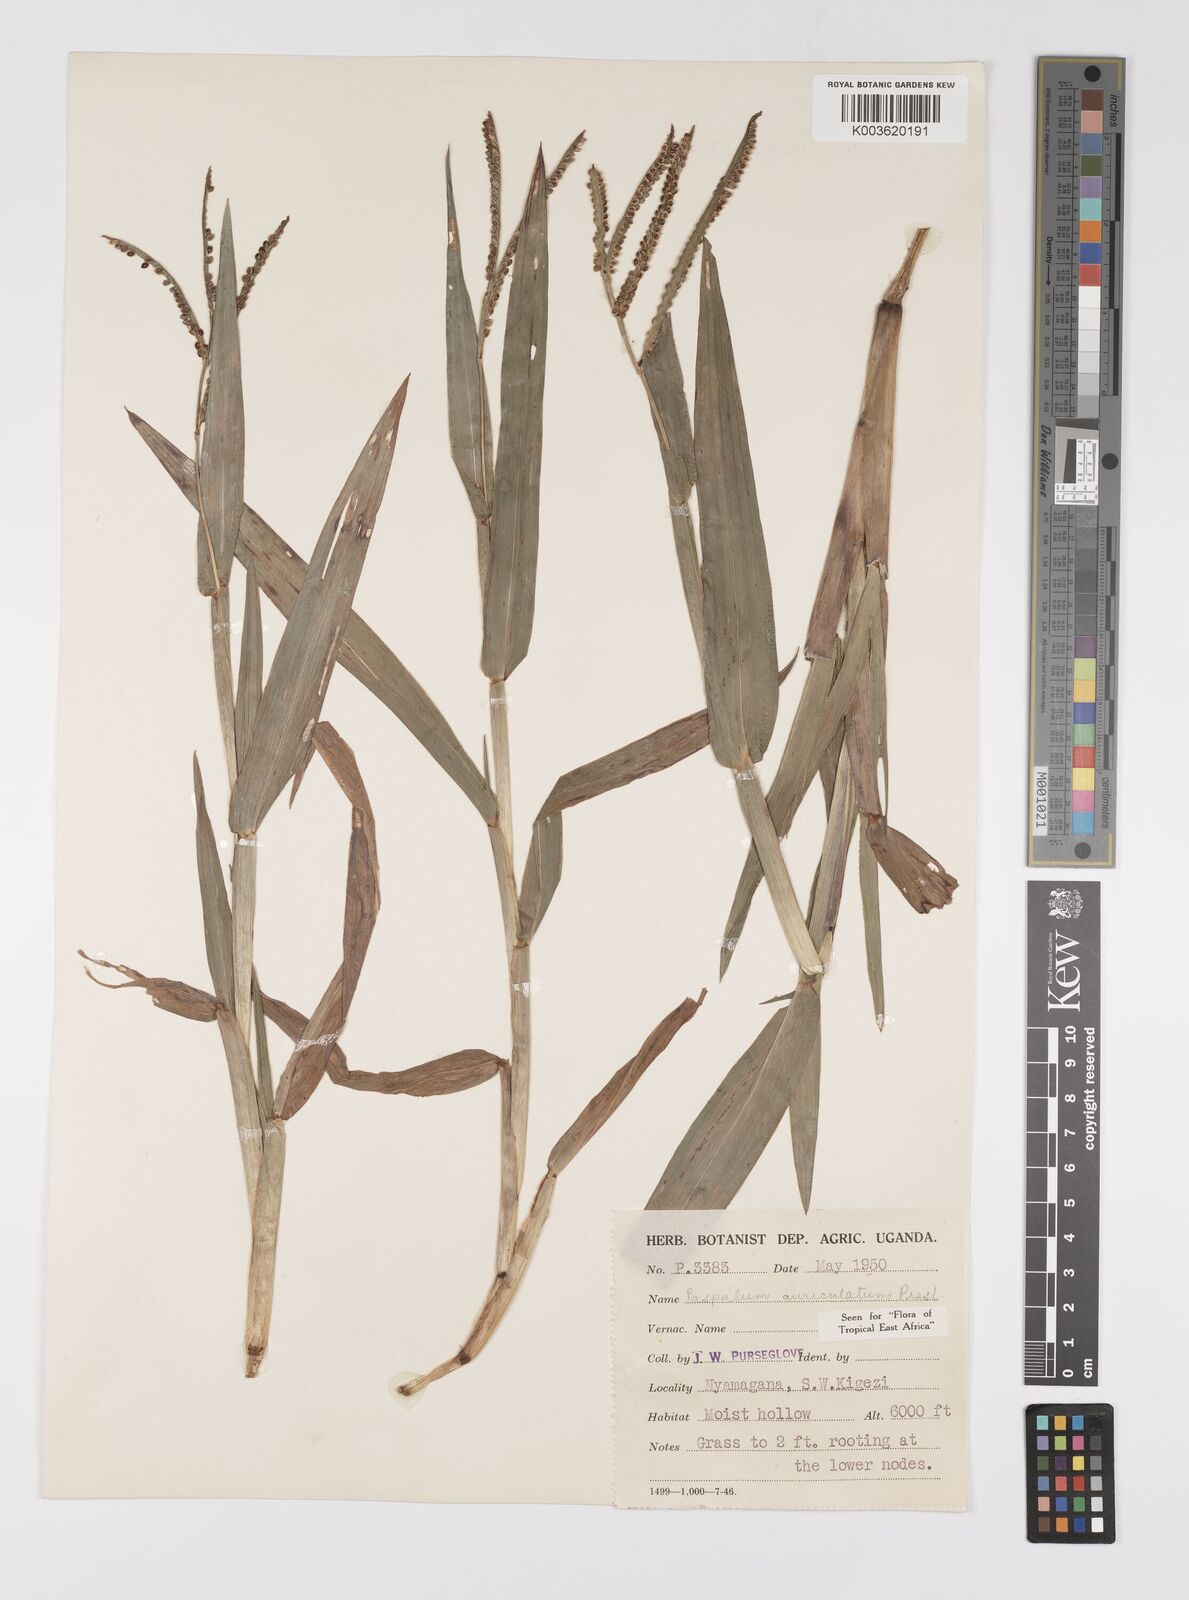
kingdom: Plantae
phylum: Tracheophyta
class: Liliopsida
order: Poales
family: Poaceae
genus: Paspalum
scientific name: Paspalum lamprocaryon
